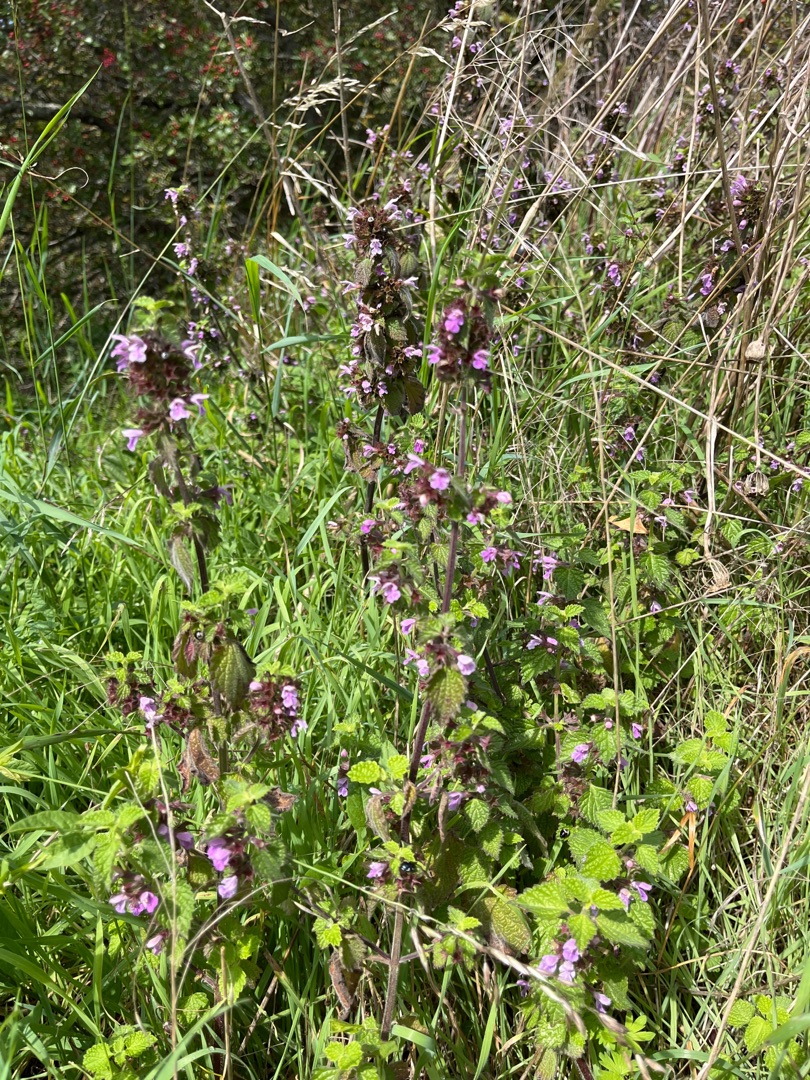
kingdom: Plantae
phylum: Tracheophyta
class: Magnoliopsida
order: Lamiales
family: Lamiaceae
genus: Ballota
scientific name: Ballota nigra
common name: Tandbæger
